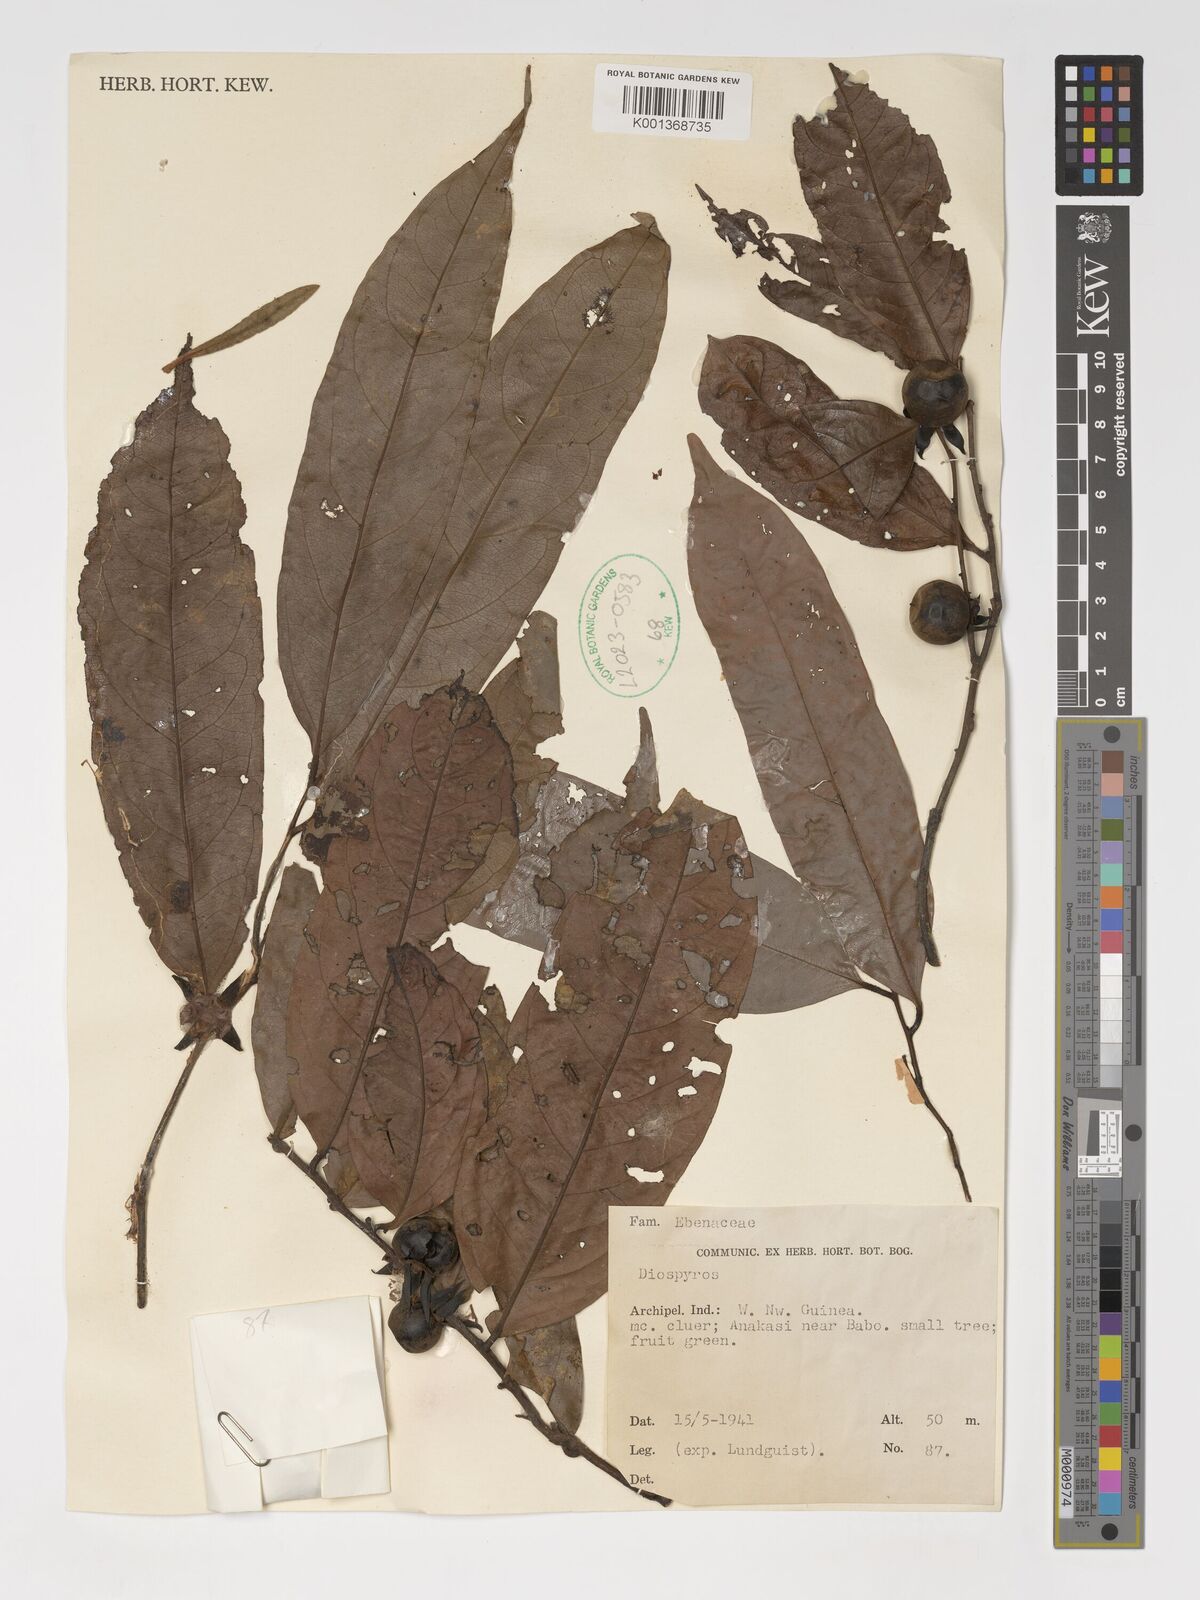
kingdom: Plantae
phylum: Tracheophyta
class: Magnoliopsida
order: Ericales
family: Ebenaceae
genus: Diospyros
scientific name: Diospyros
